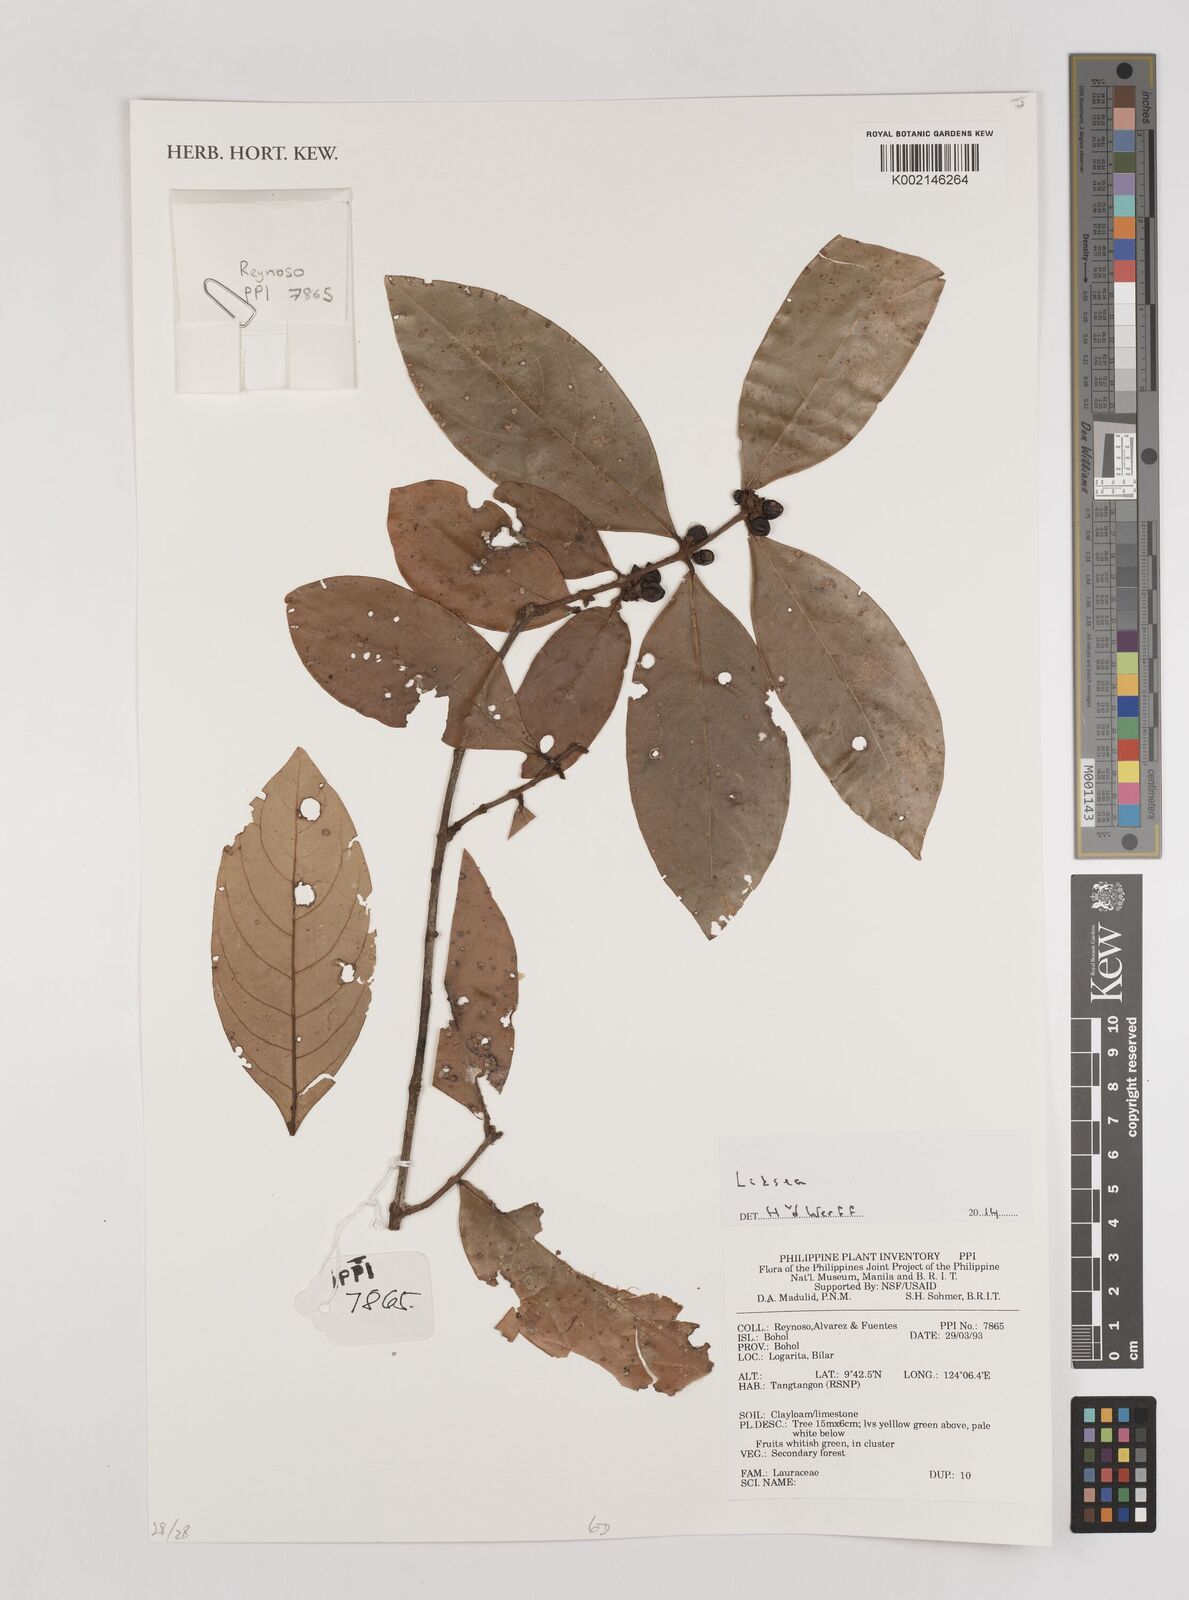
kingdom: Plantae
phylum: Tracheophyta
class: Magnoliopsida
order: Laurales
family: Lauraceae
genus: Litsea
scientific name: Litsea
